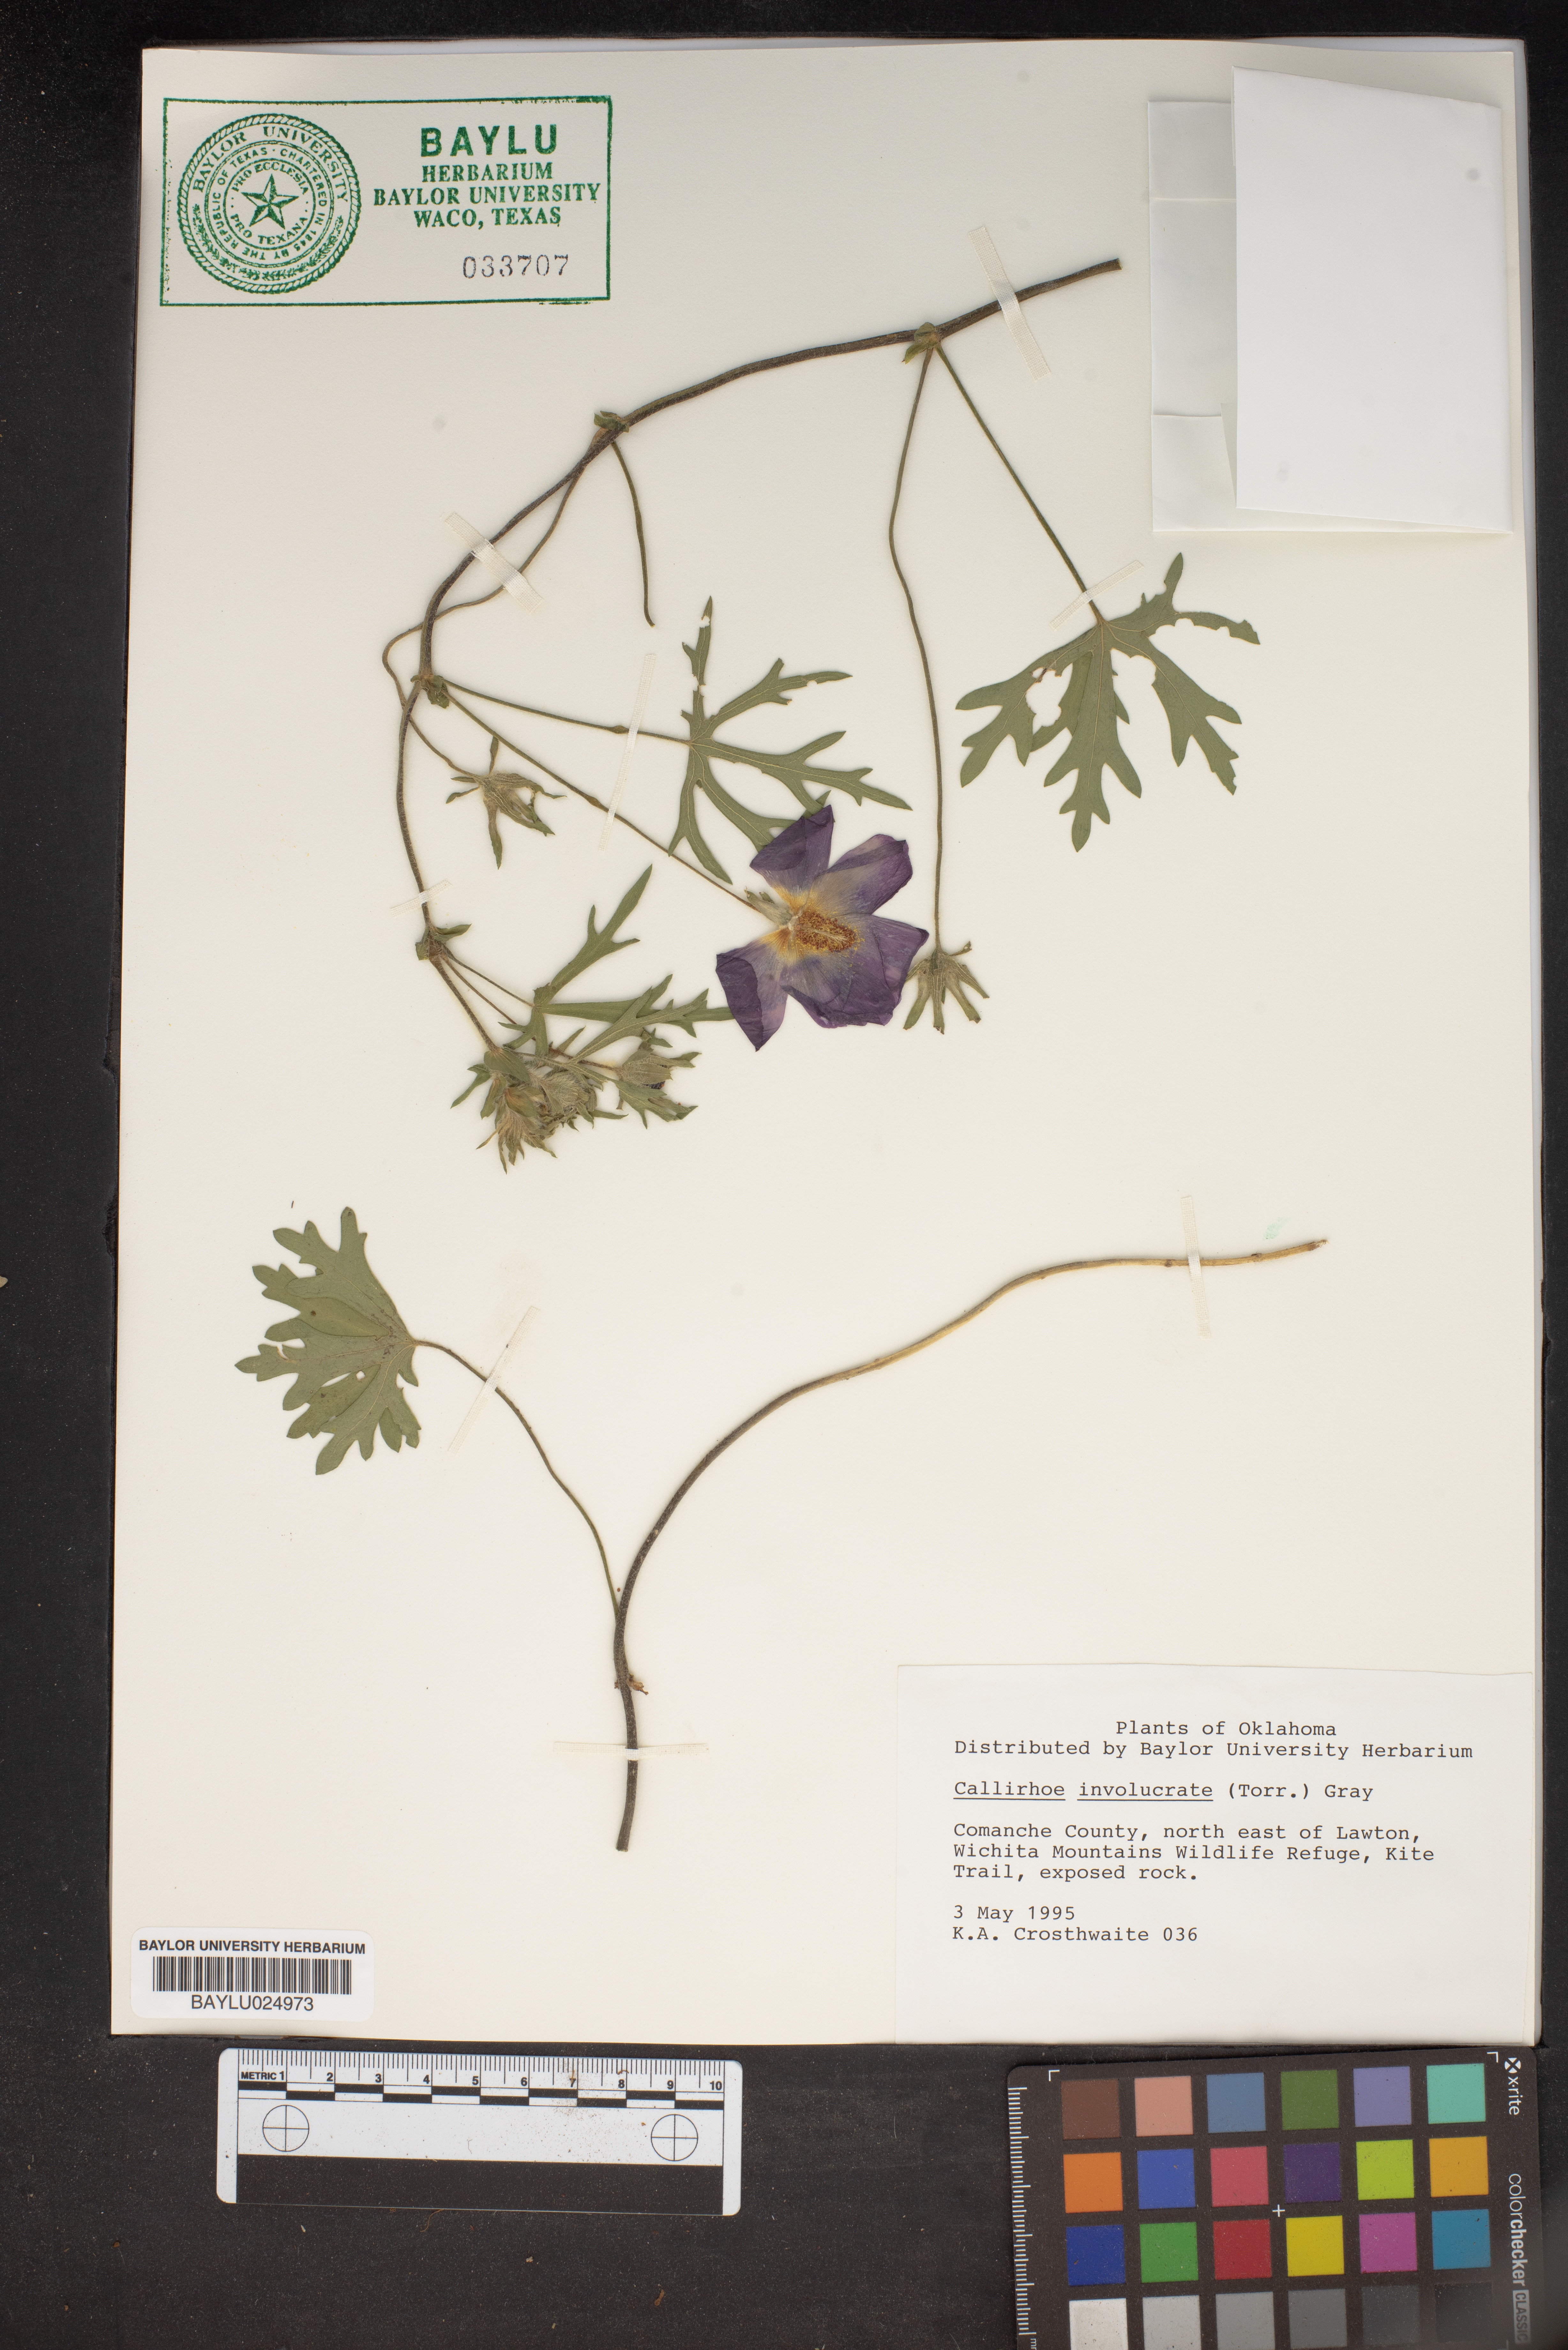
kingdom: Plantae
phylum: Tracheophyta
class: Magnoliopsida
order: Malvales
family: Malvaceae
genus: Callirhoe
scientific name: Callirhoe involucrata
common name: Purple poppy-mallow
